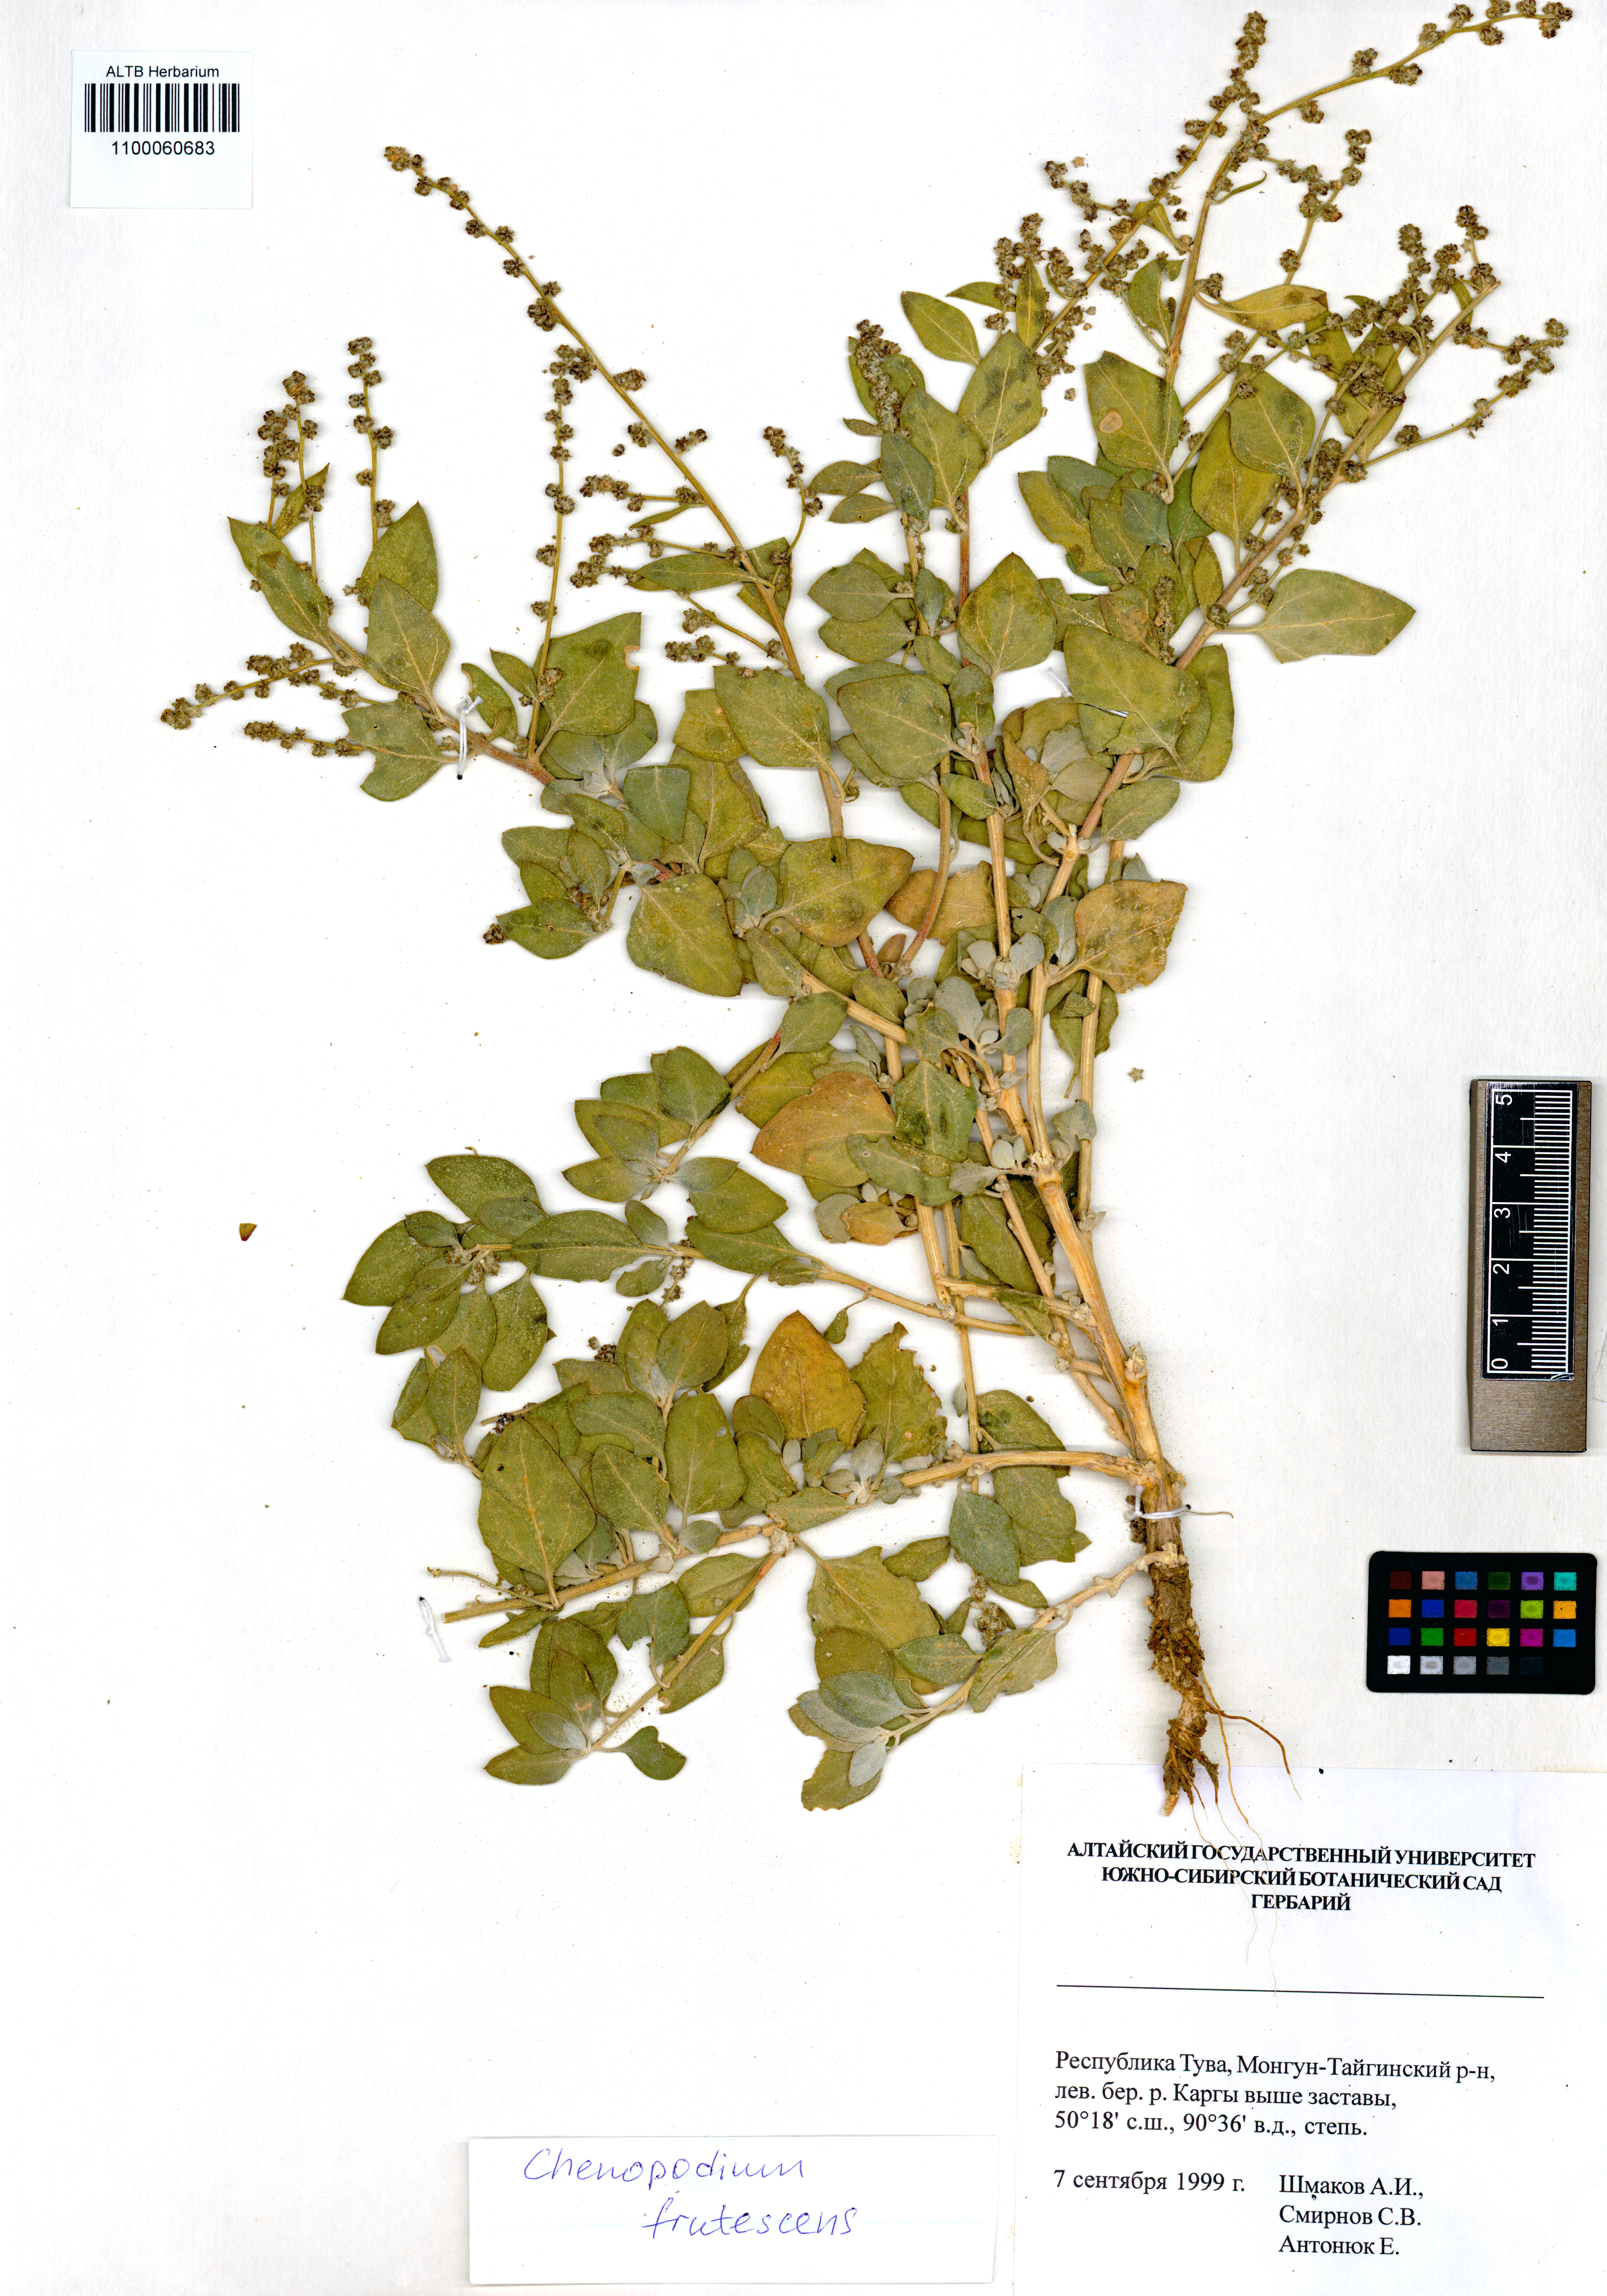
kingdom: Plantae
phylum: Tracheophyta
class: Magnoliopsida
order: Caryophyllales
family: Amaranthaceae
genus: Chenopodium
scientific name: Chenopodium frutescens
